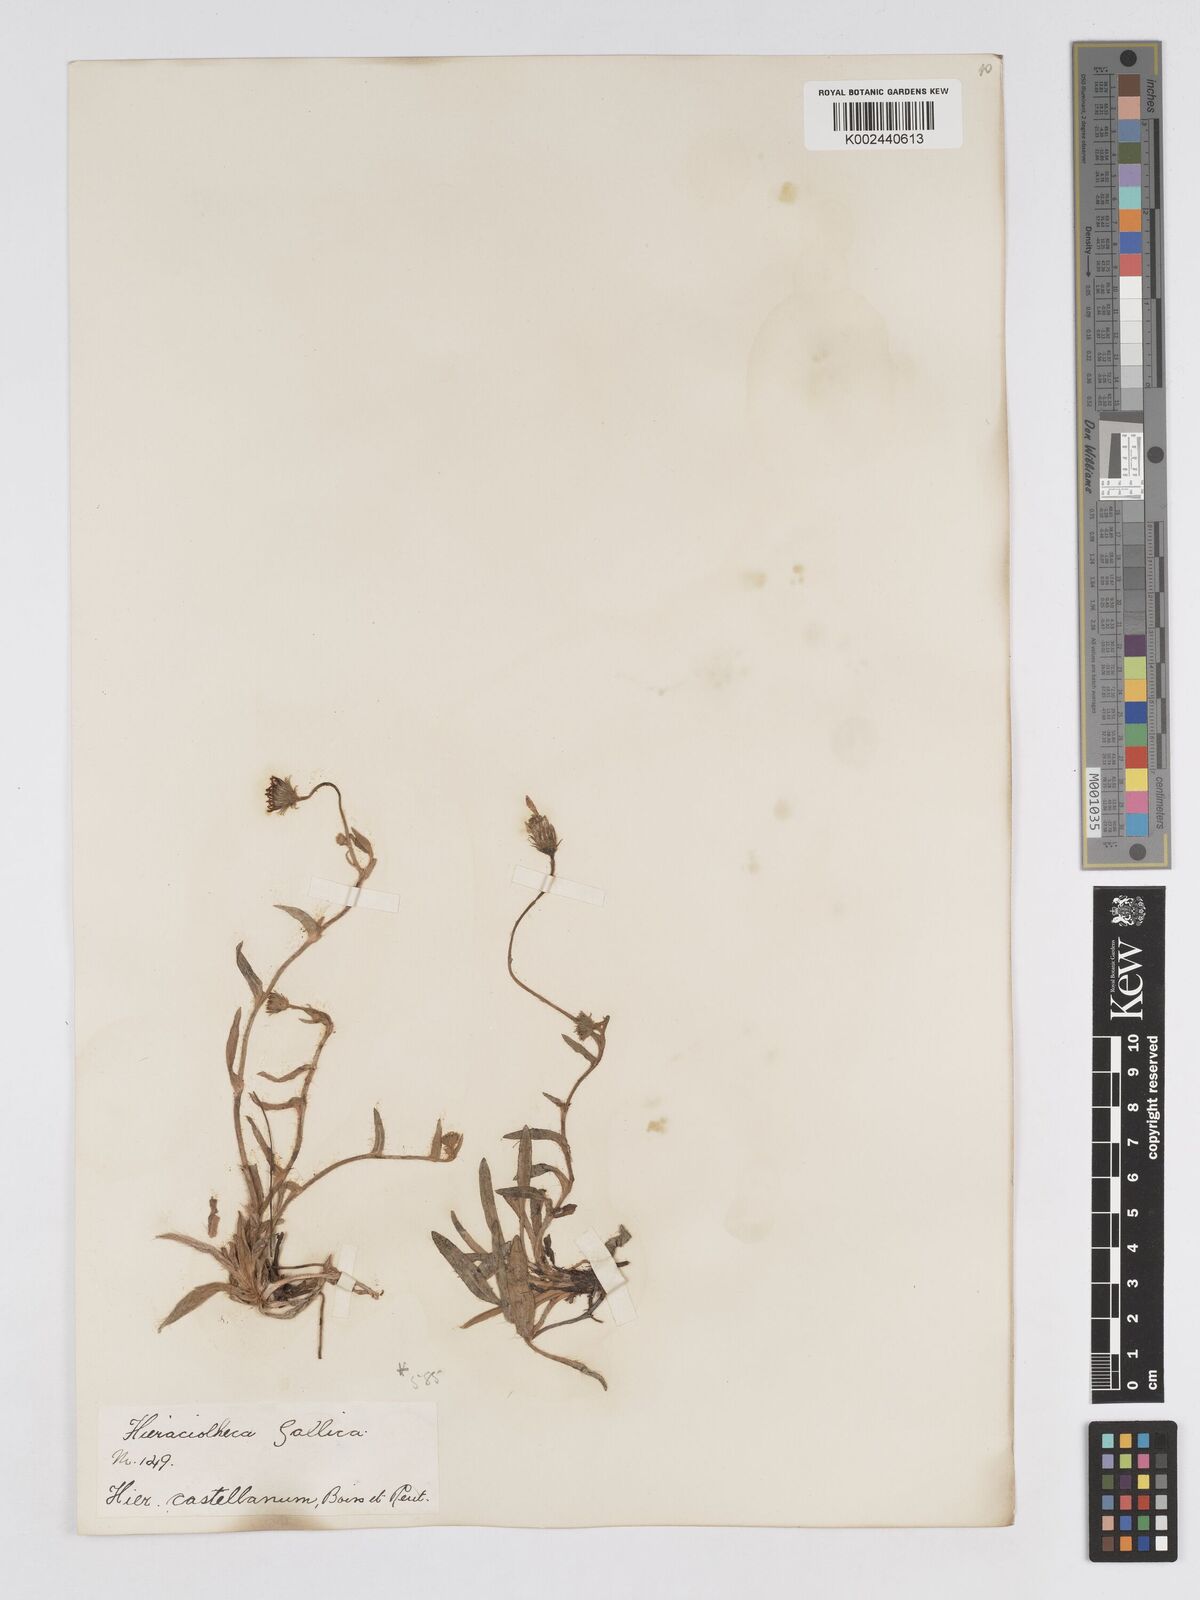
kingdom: Plantae
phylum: Tracheophyta
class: Magnoliopsida
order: Asterales
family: Asteraceae
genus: Pilosella
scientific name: Pilosella castellana
